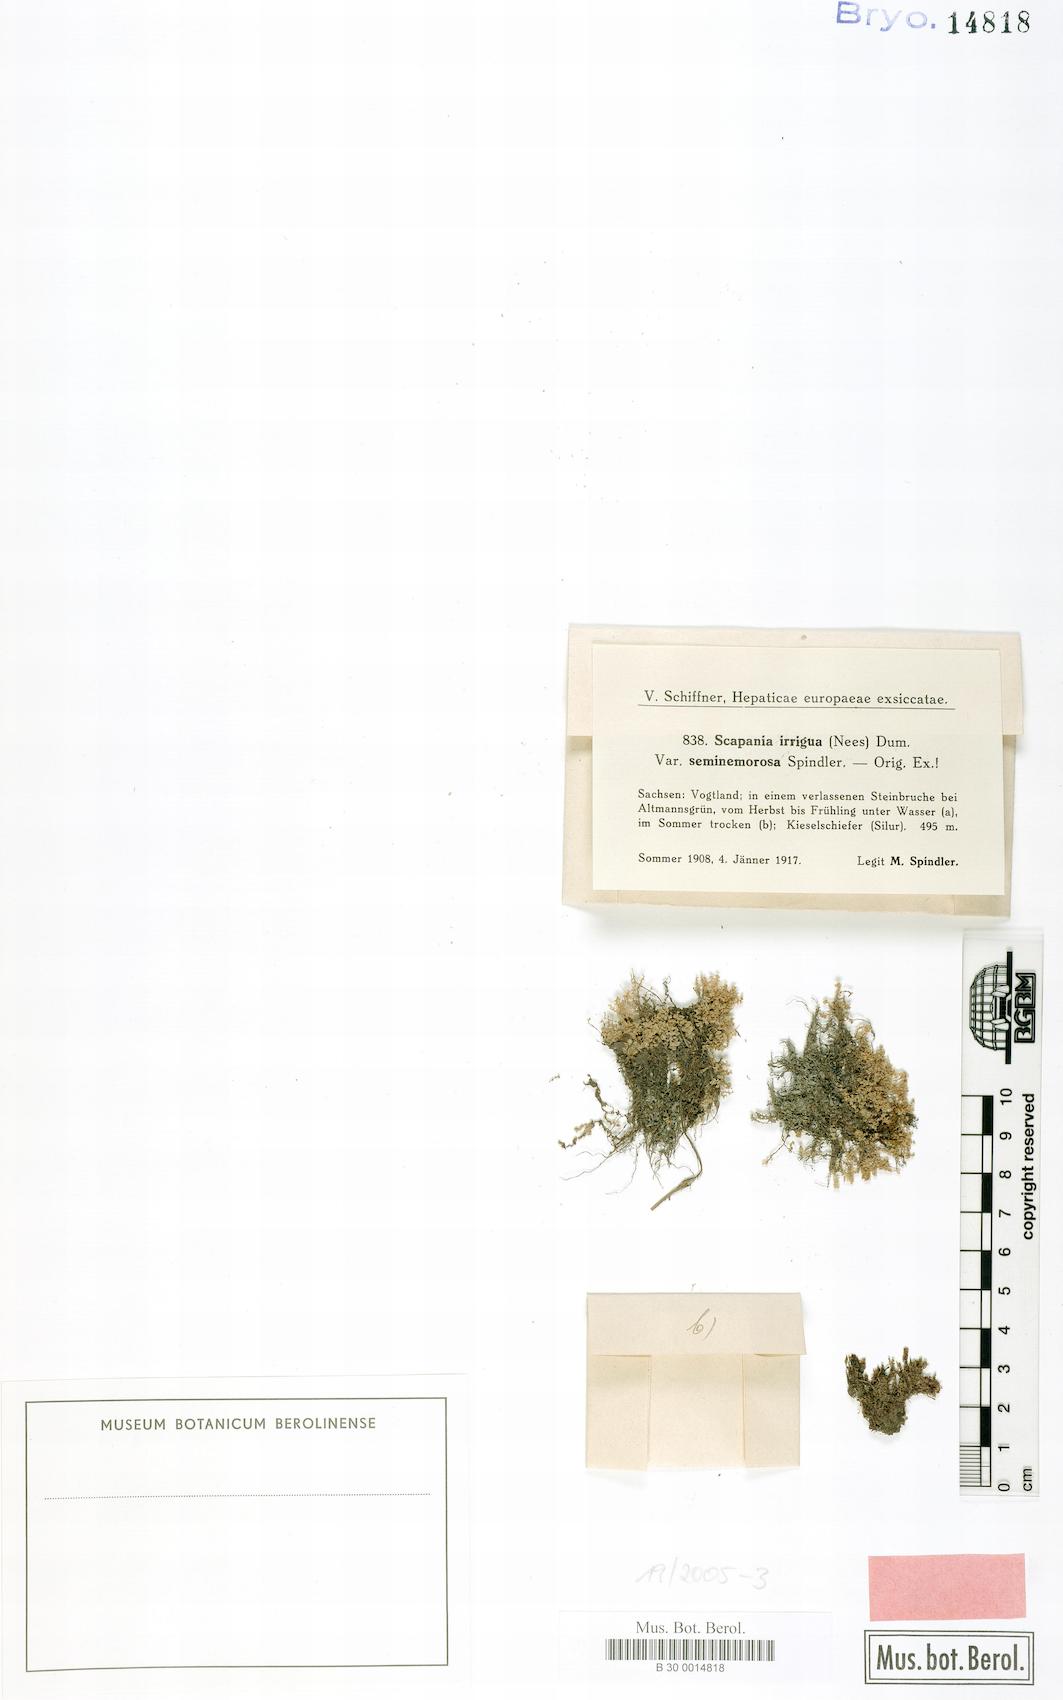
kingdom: Plantae
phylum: Marchantiophyta
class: Jungermanniopsida
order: Jungermanniales
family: Scapaniaceae
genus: Scapania
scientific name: Scapania irrigua
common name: Heath earwort
